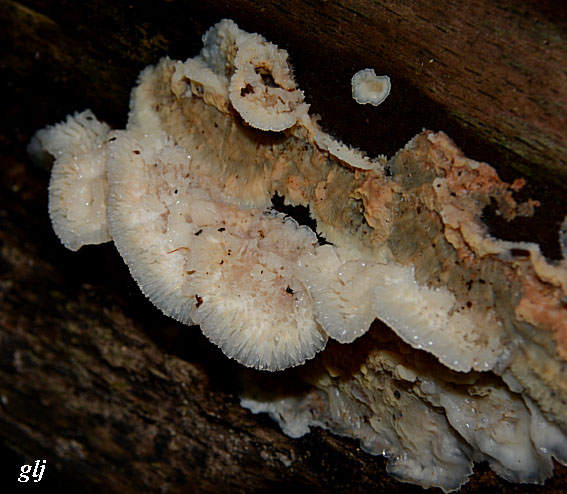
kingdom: Fungi
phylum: Basidiomycota
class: Agaricomycetes
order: Polyporales
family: Meruliaceae
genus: Phlebia
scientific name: Phlebia tremellosa
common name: bævrende åresvamp
